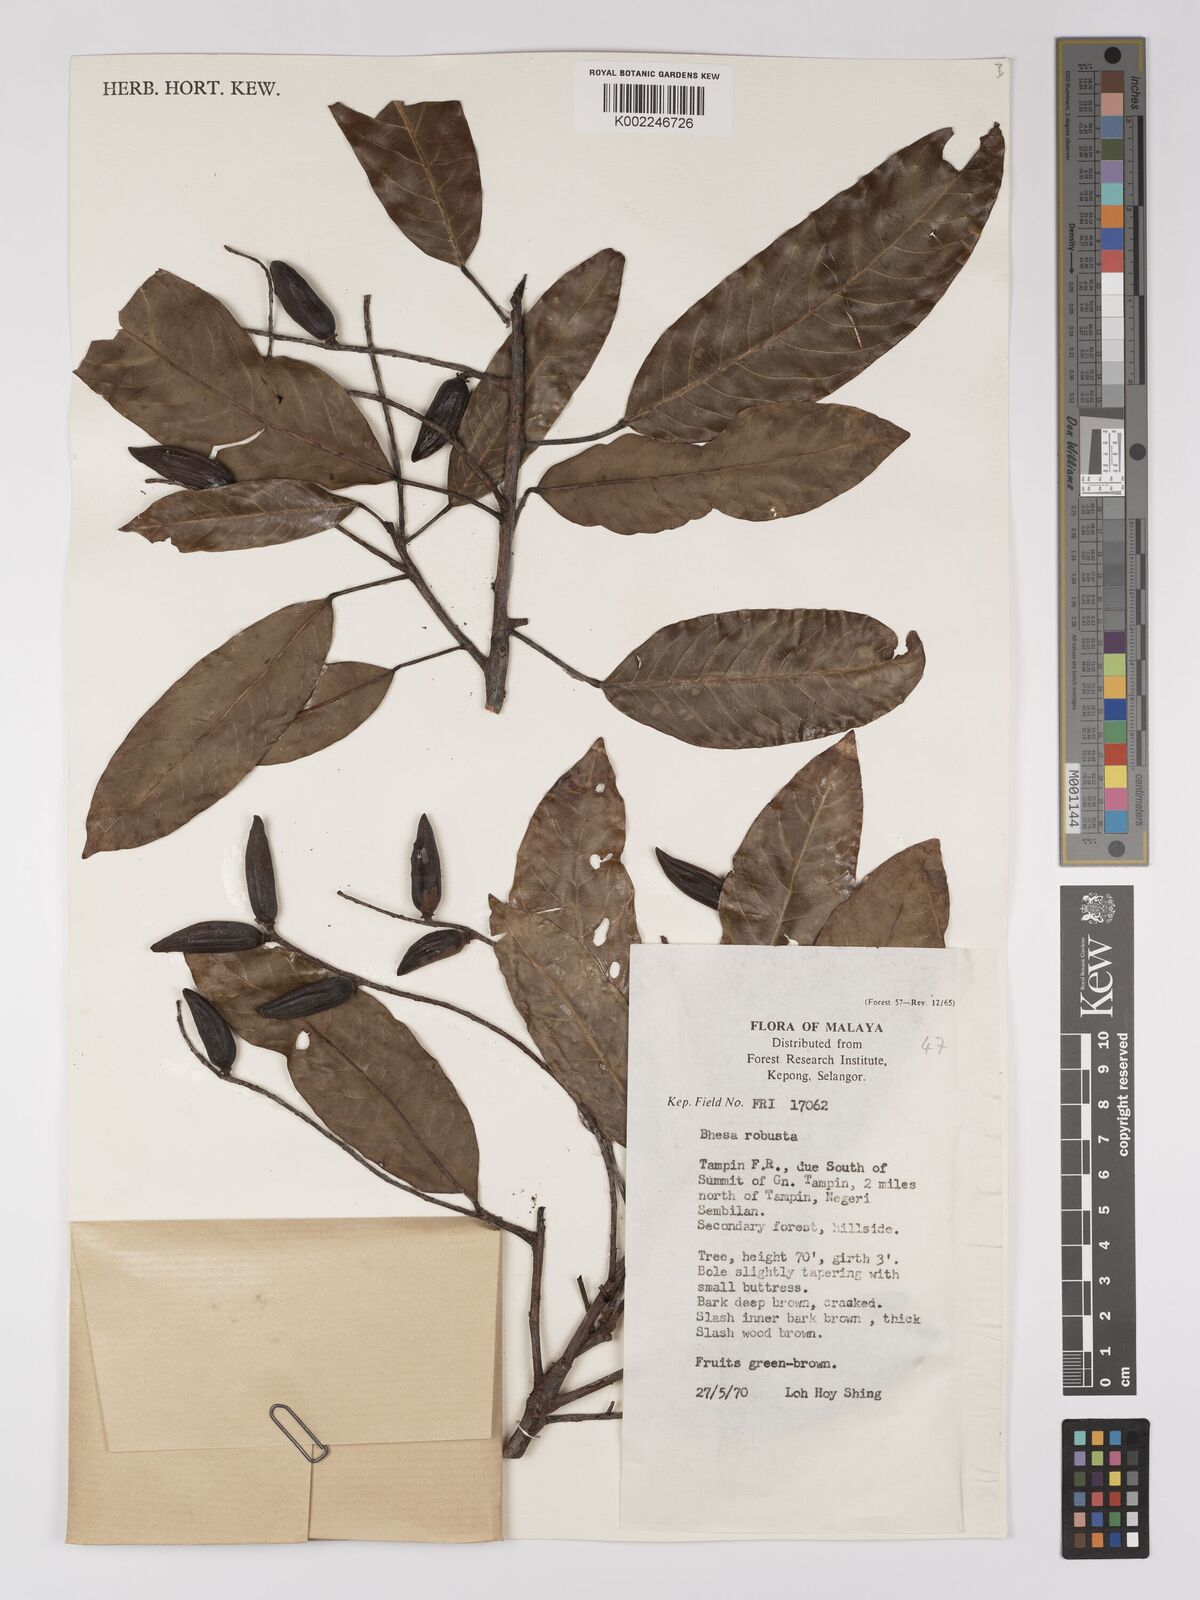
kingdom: Plantae
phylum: Tracheophyta
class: Magnoliopsida
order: Malpighiales
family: Centroplacaceae
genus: Bhesa
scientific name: Bhesa robusta
